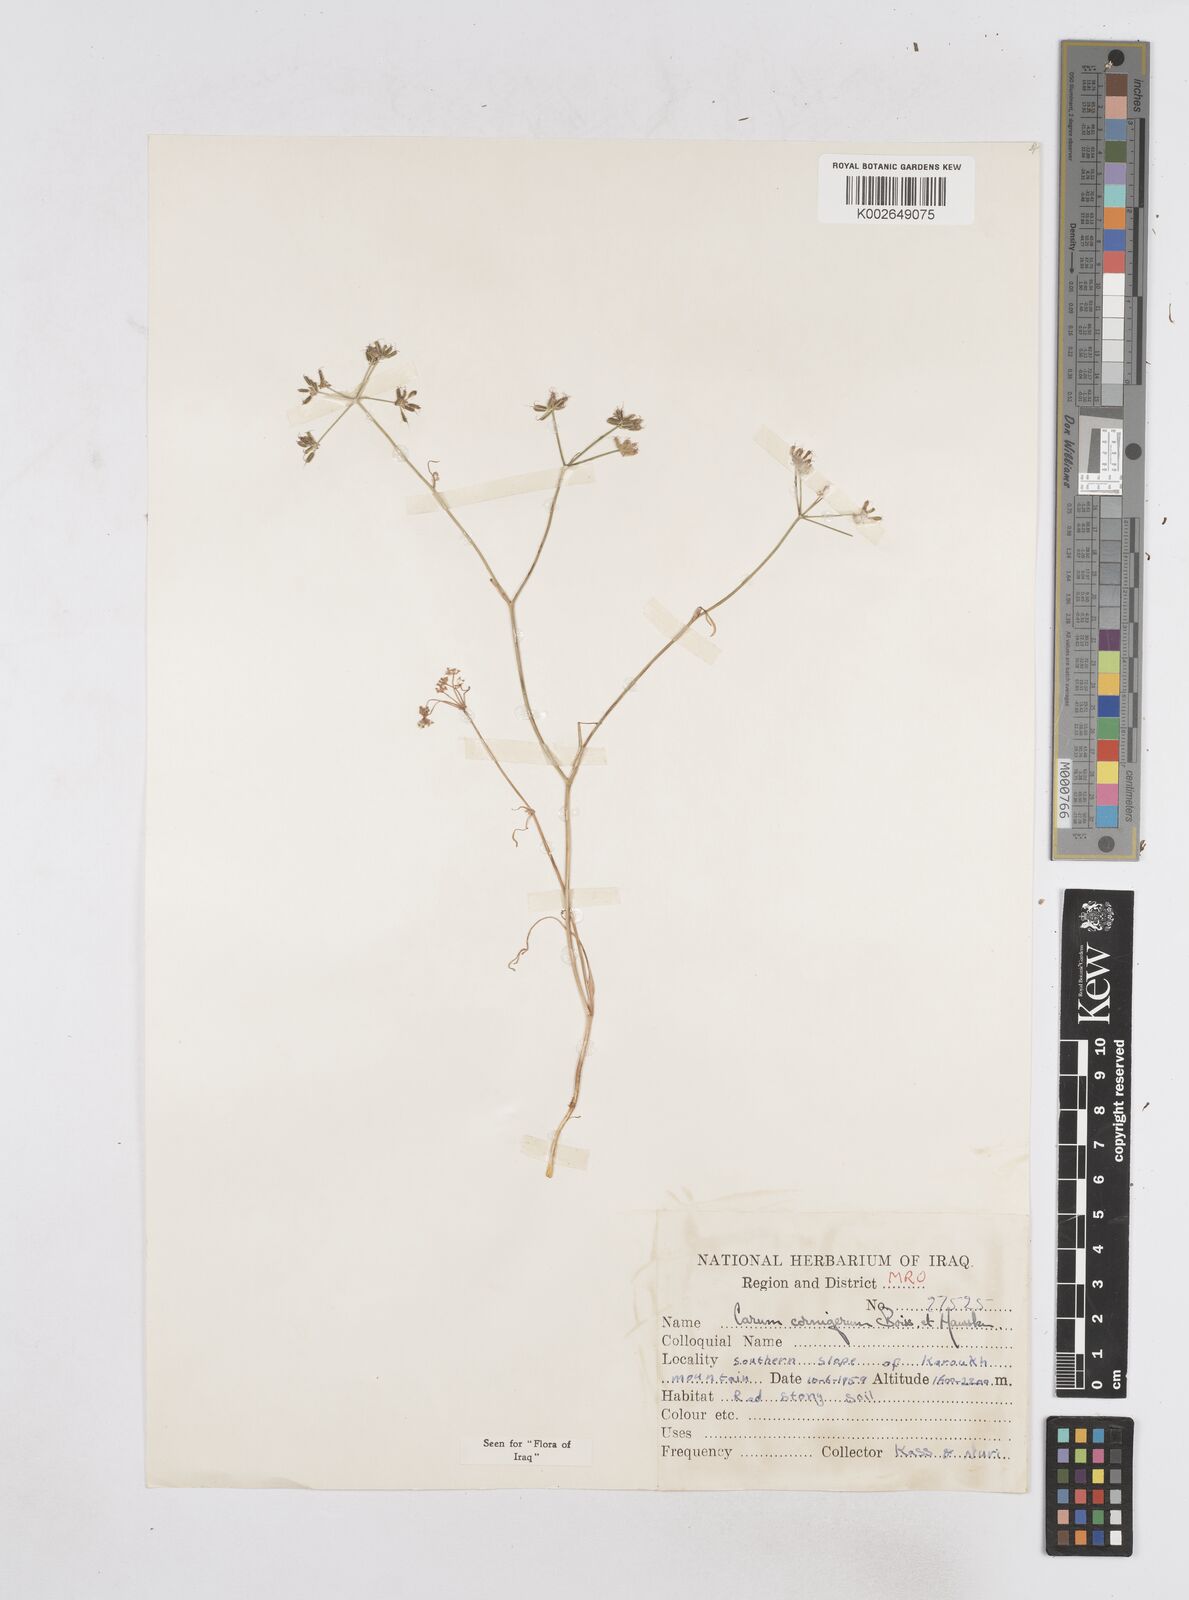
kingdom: Plantae
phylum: Tracheophyta
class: Magnoliopsida
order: Apiales
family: Apiaceae
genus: Bunium
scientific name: Bunium cornigerum
